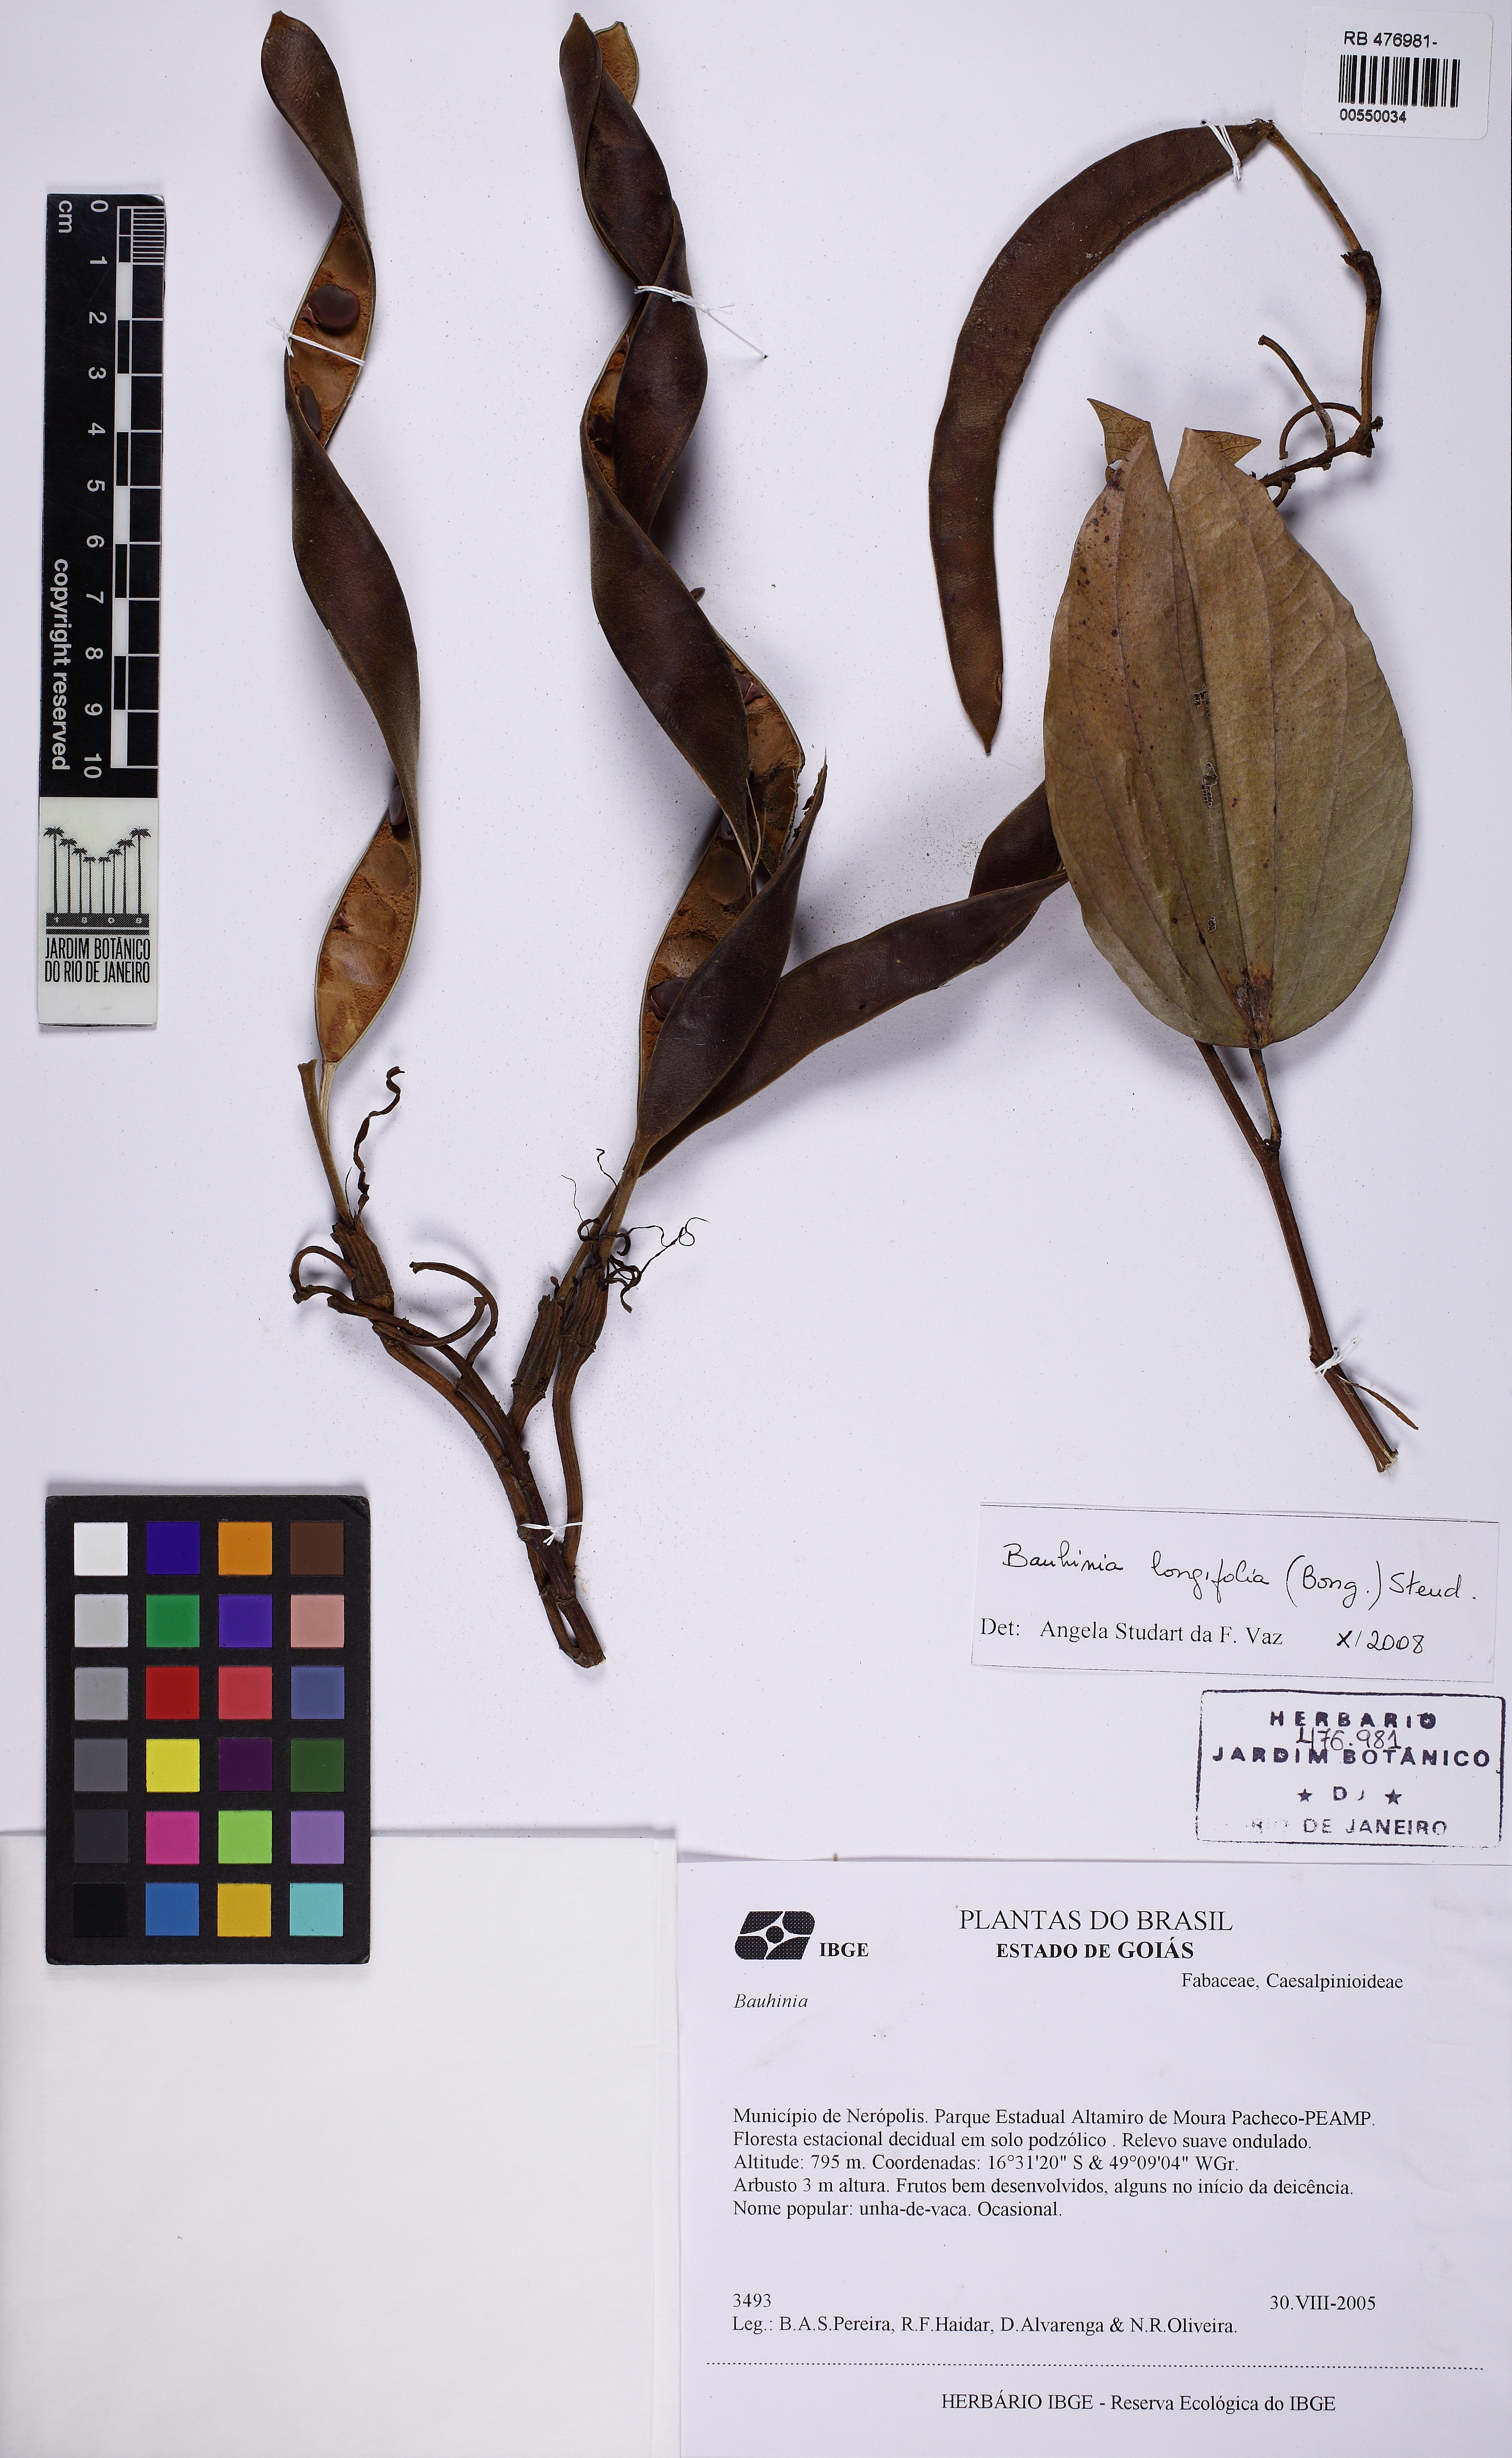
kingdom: Plantae
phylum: Tracheophyta
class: Magnoliopsida
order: Fabales
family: Fabaceae
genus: Bauhinia
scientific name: Bauhinia longifolia
